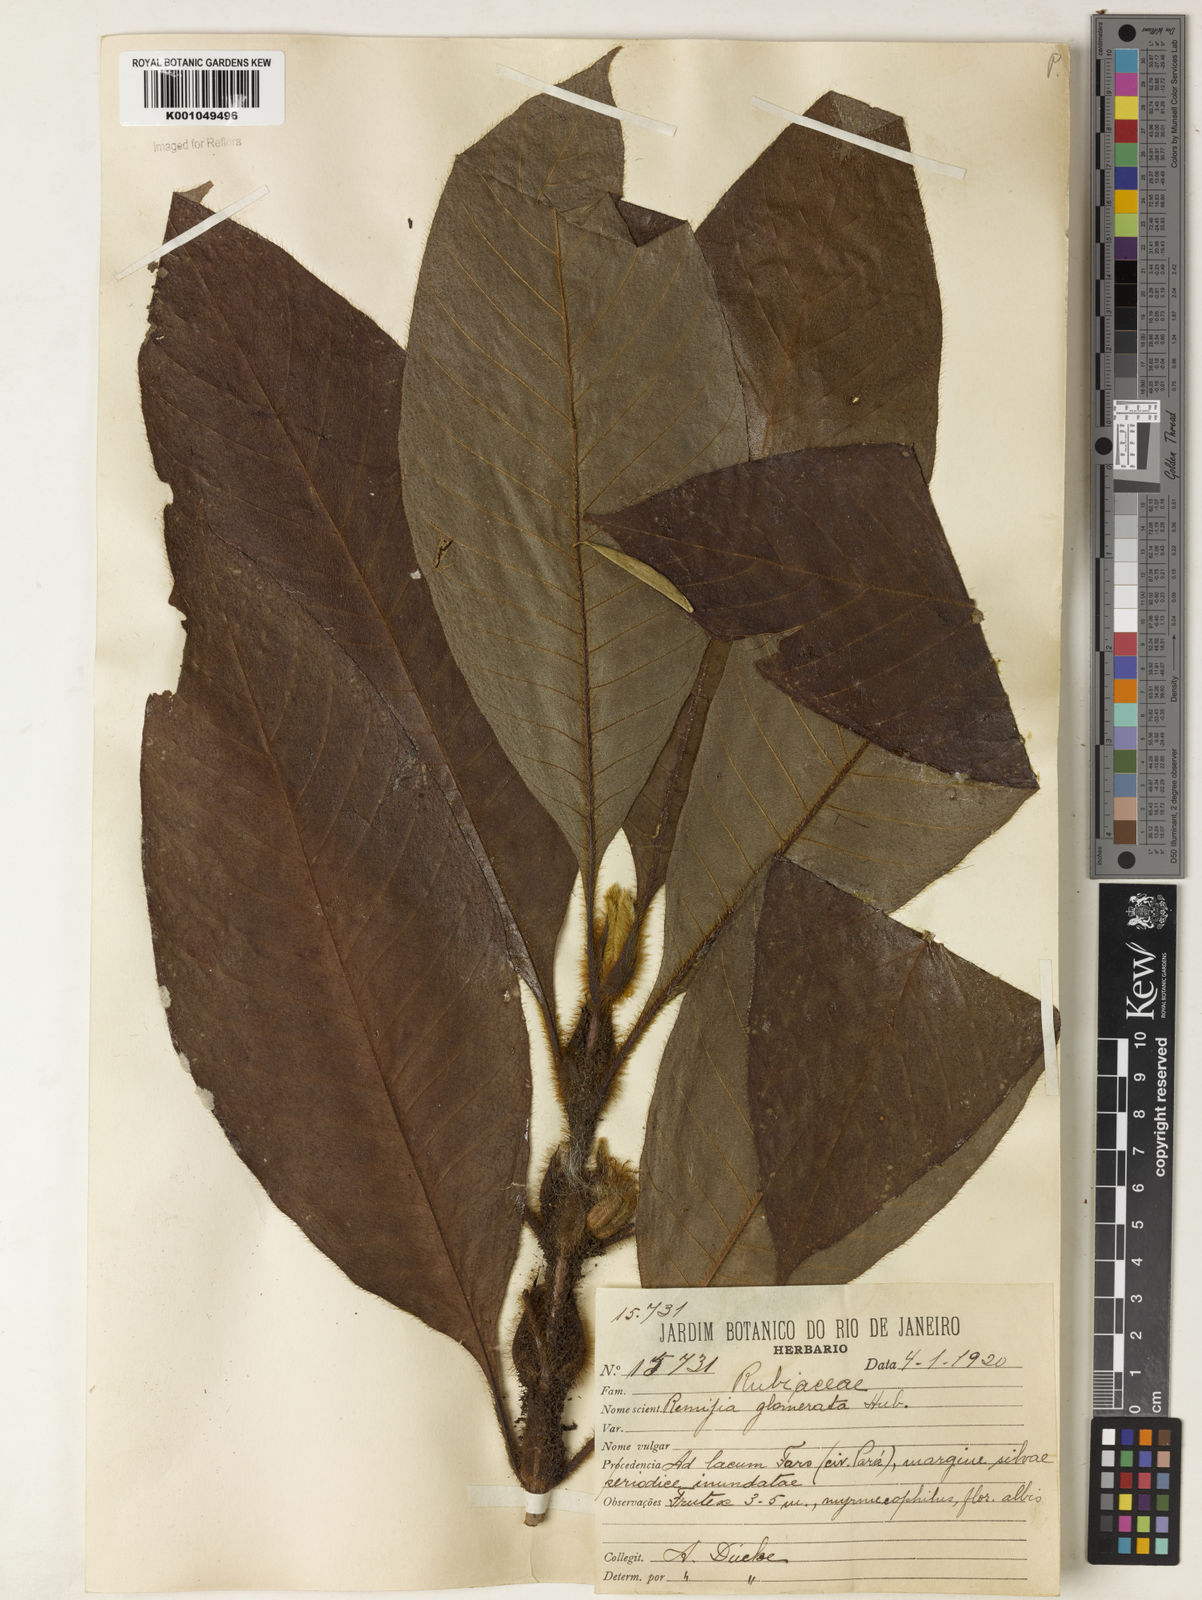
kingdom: Plantae
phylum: Tracheophyta
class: Magnoliopsida
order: Gentianales
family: Rubiaceae
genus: Remijia
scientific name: Remijia glomerata
